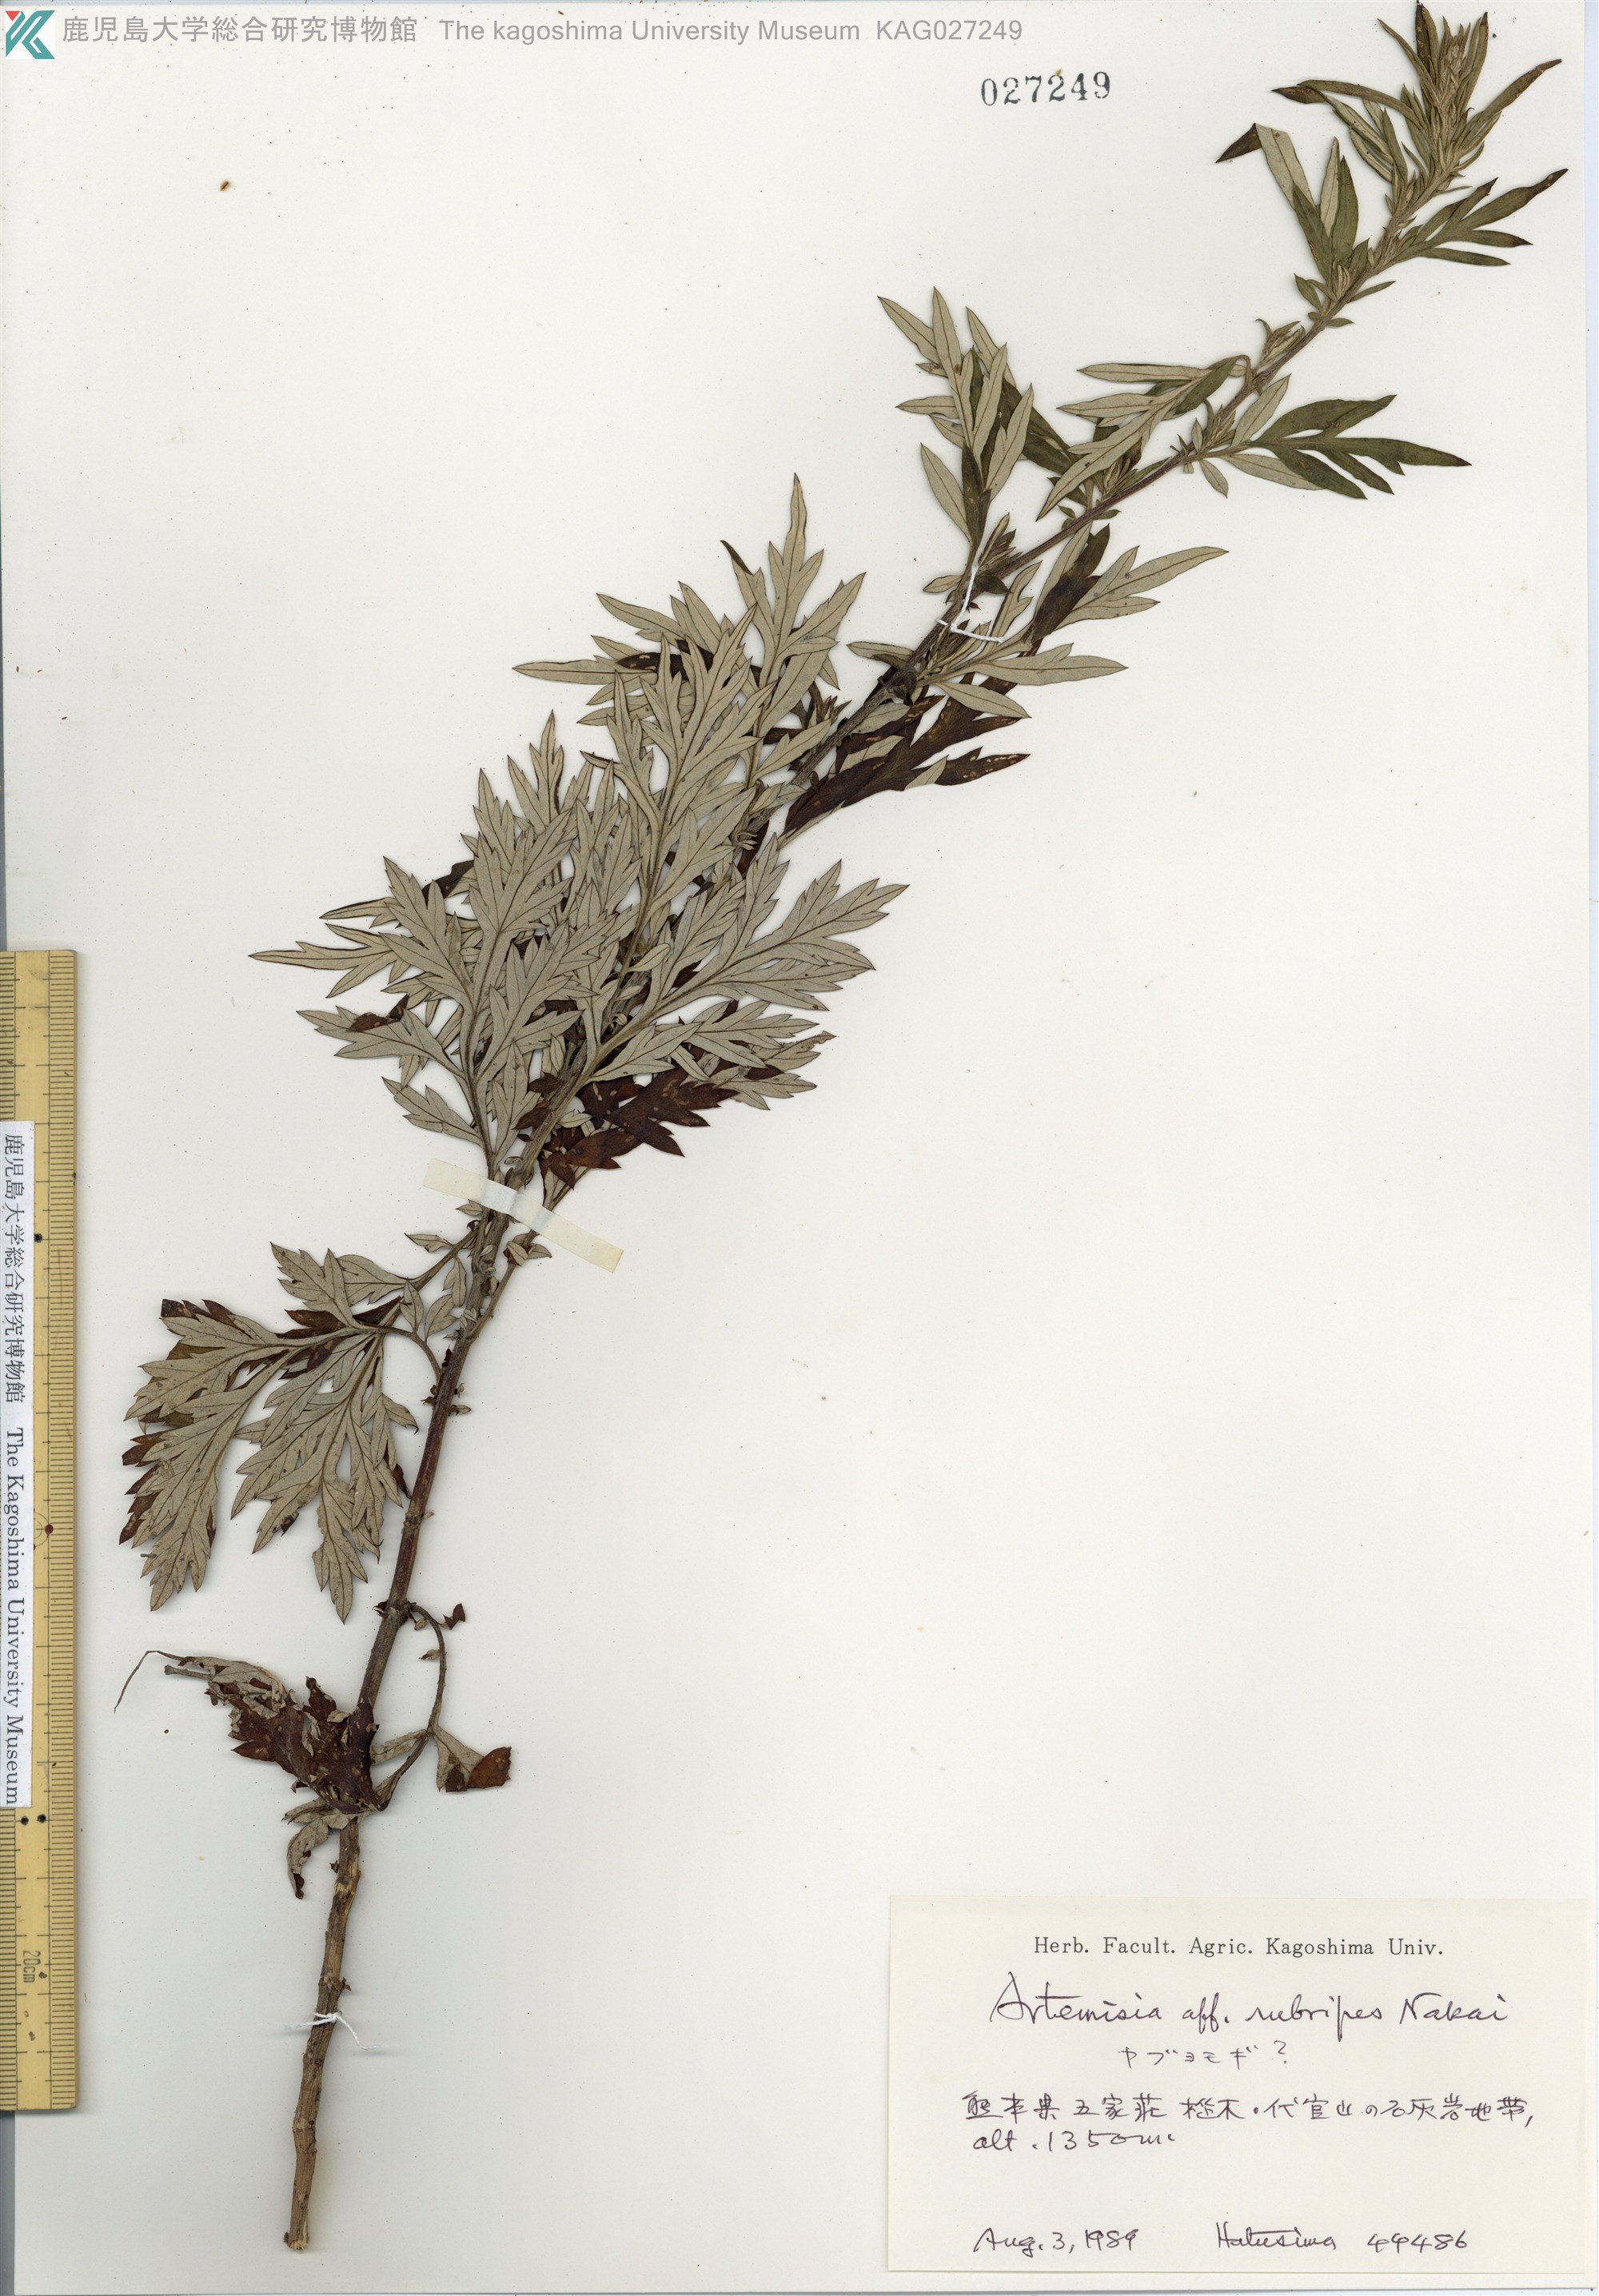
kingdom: Plantae
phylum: Tracheophyta
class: Magnoliopsida
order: Asterales
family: Asteraceae
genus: Artemisia
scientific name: Artemisia rubripes
